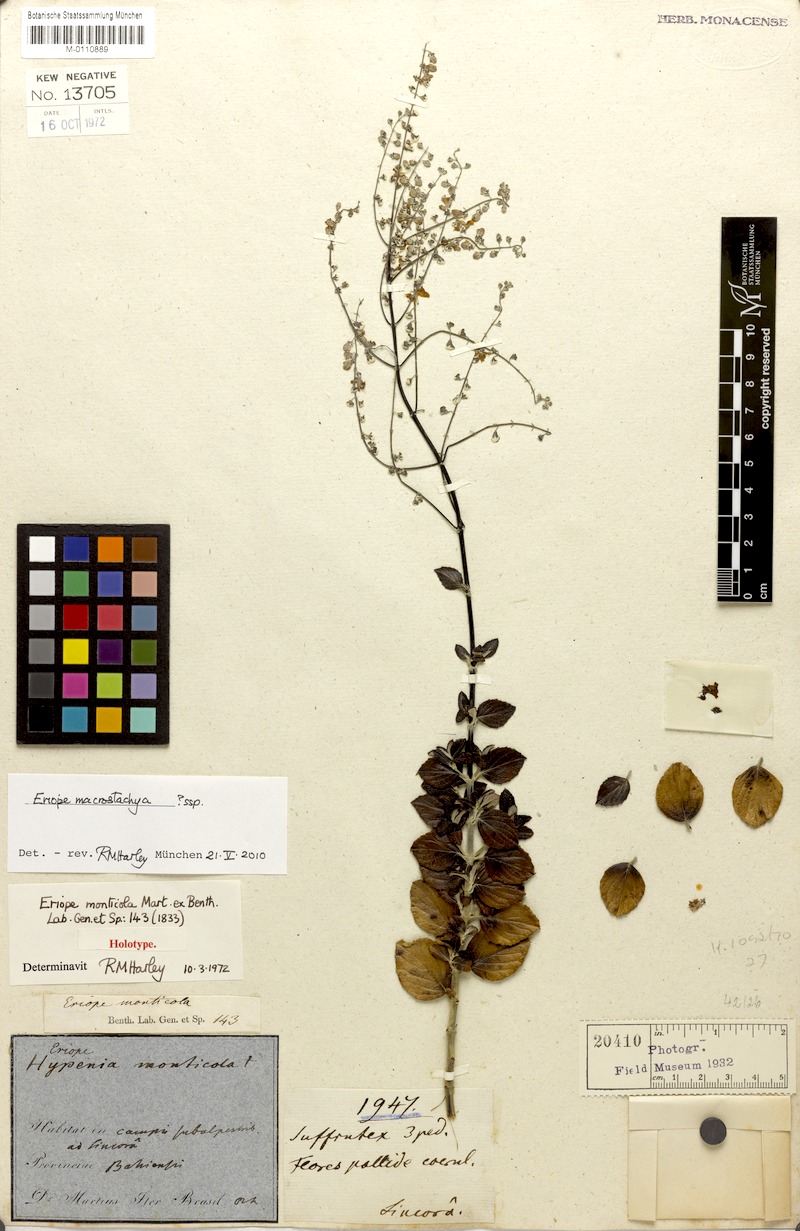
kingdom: Plantae
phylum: Tracheophyta
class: Magnoliopsida
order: Lamiales
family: Lamiaceae
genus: Eriope
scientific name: Eriope macrostachya
